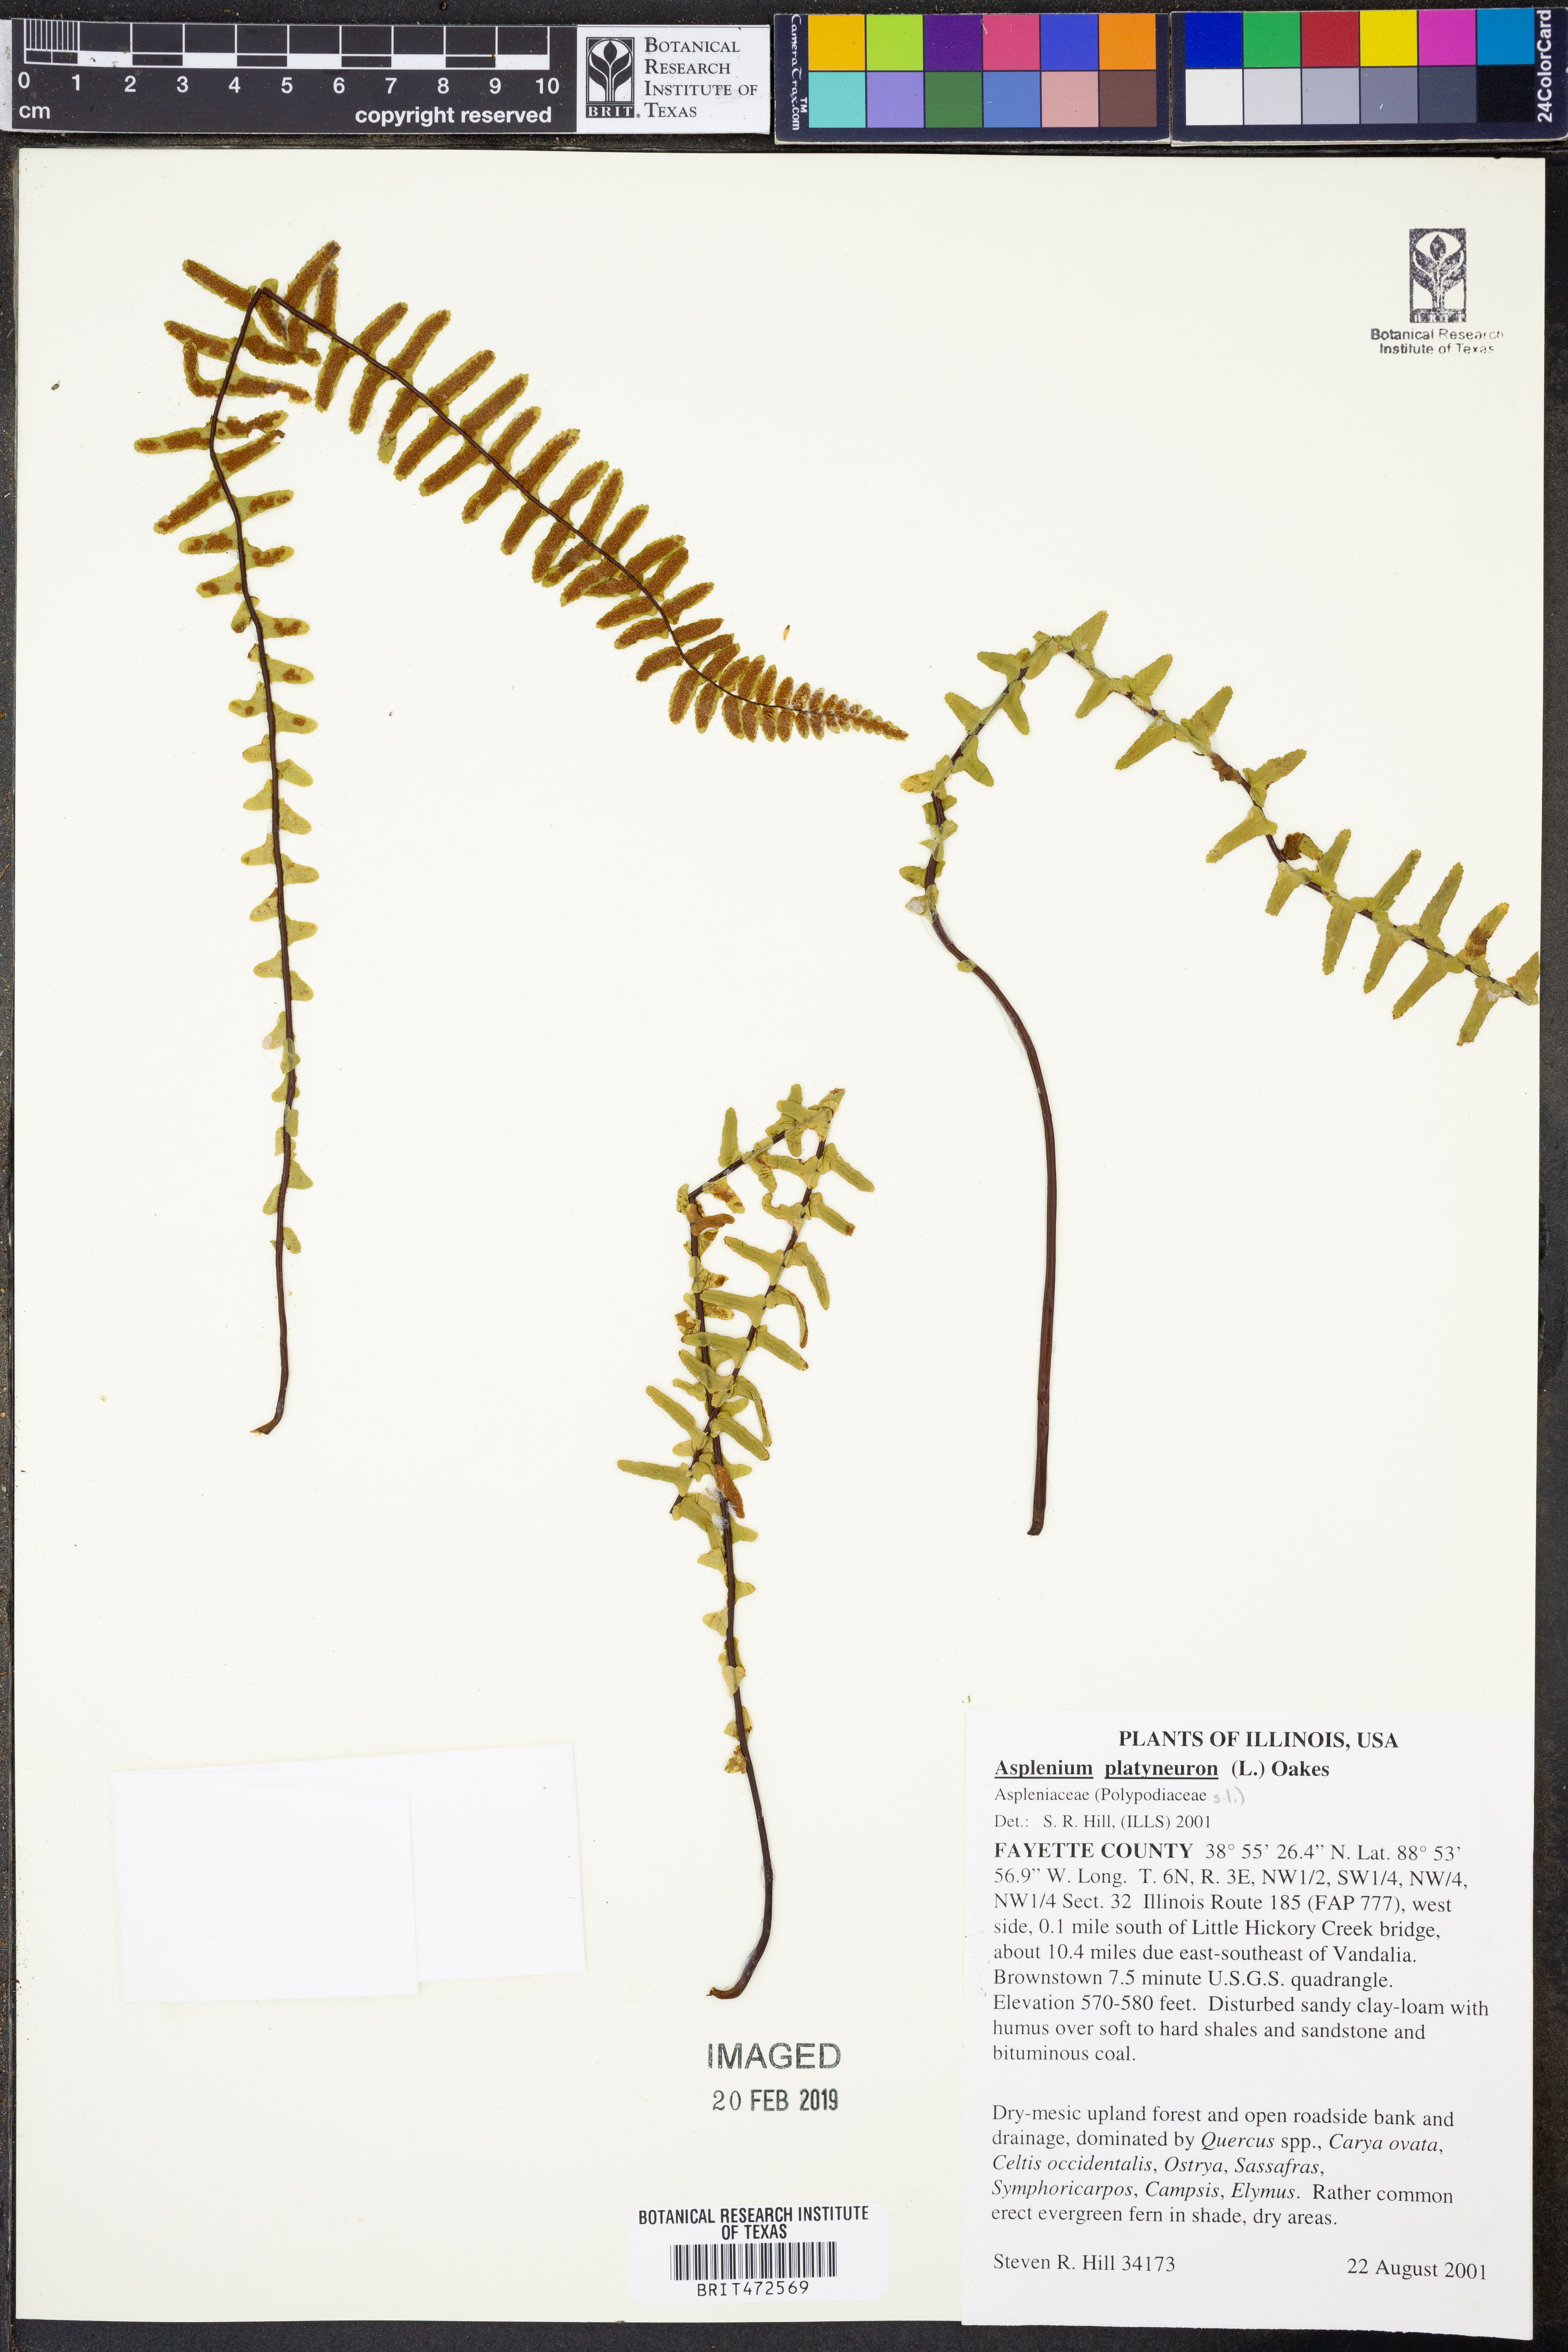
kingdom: Plantae
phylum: Tracheophyta
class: Polypodiopsida
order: Polypodiales
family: Aspleniaceae
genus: Asplenium
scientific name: Asplenium platyneuron
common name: Ebony spleenwort
